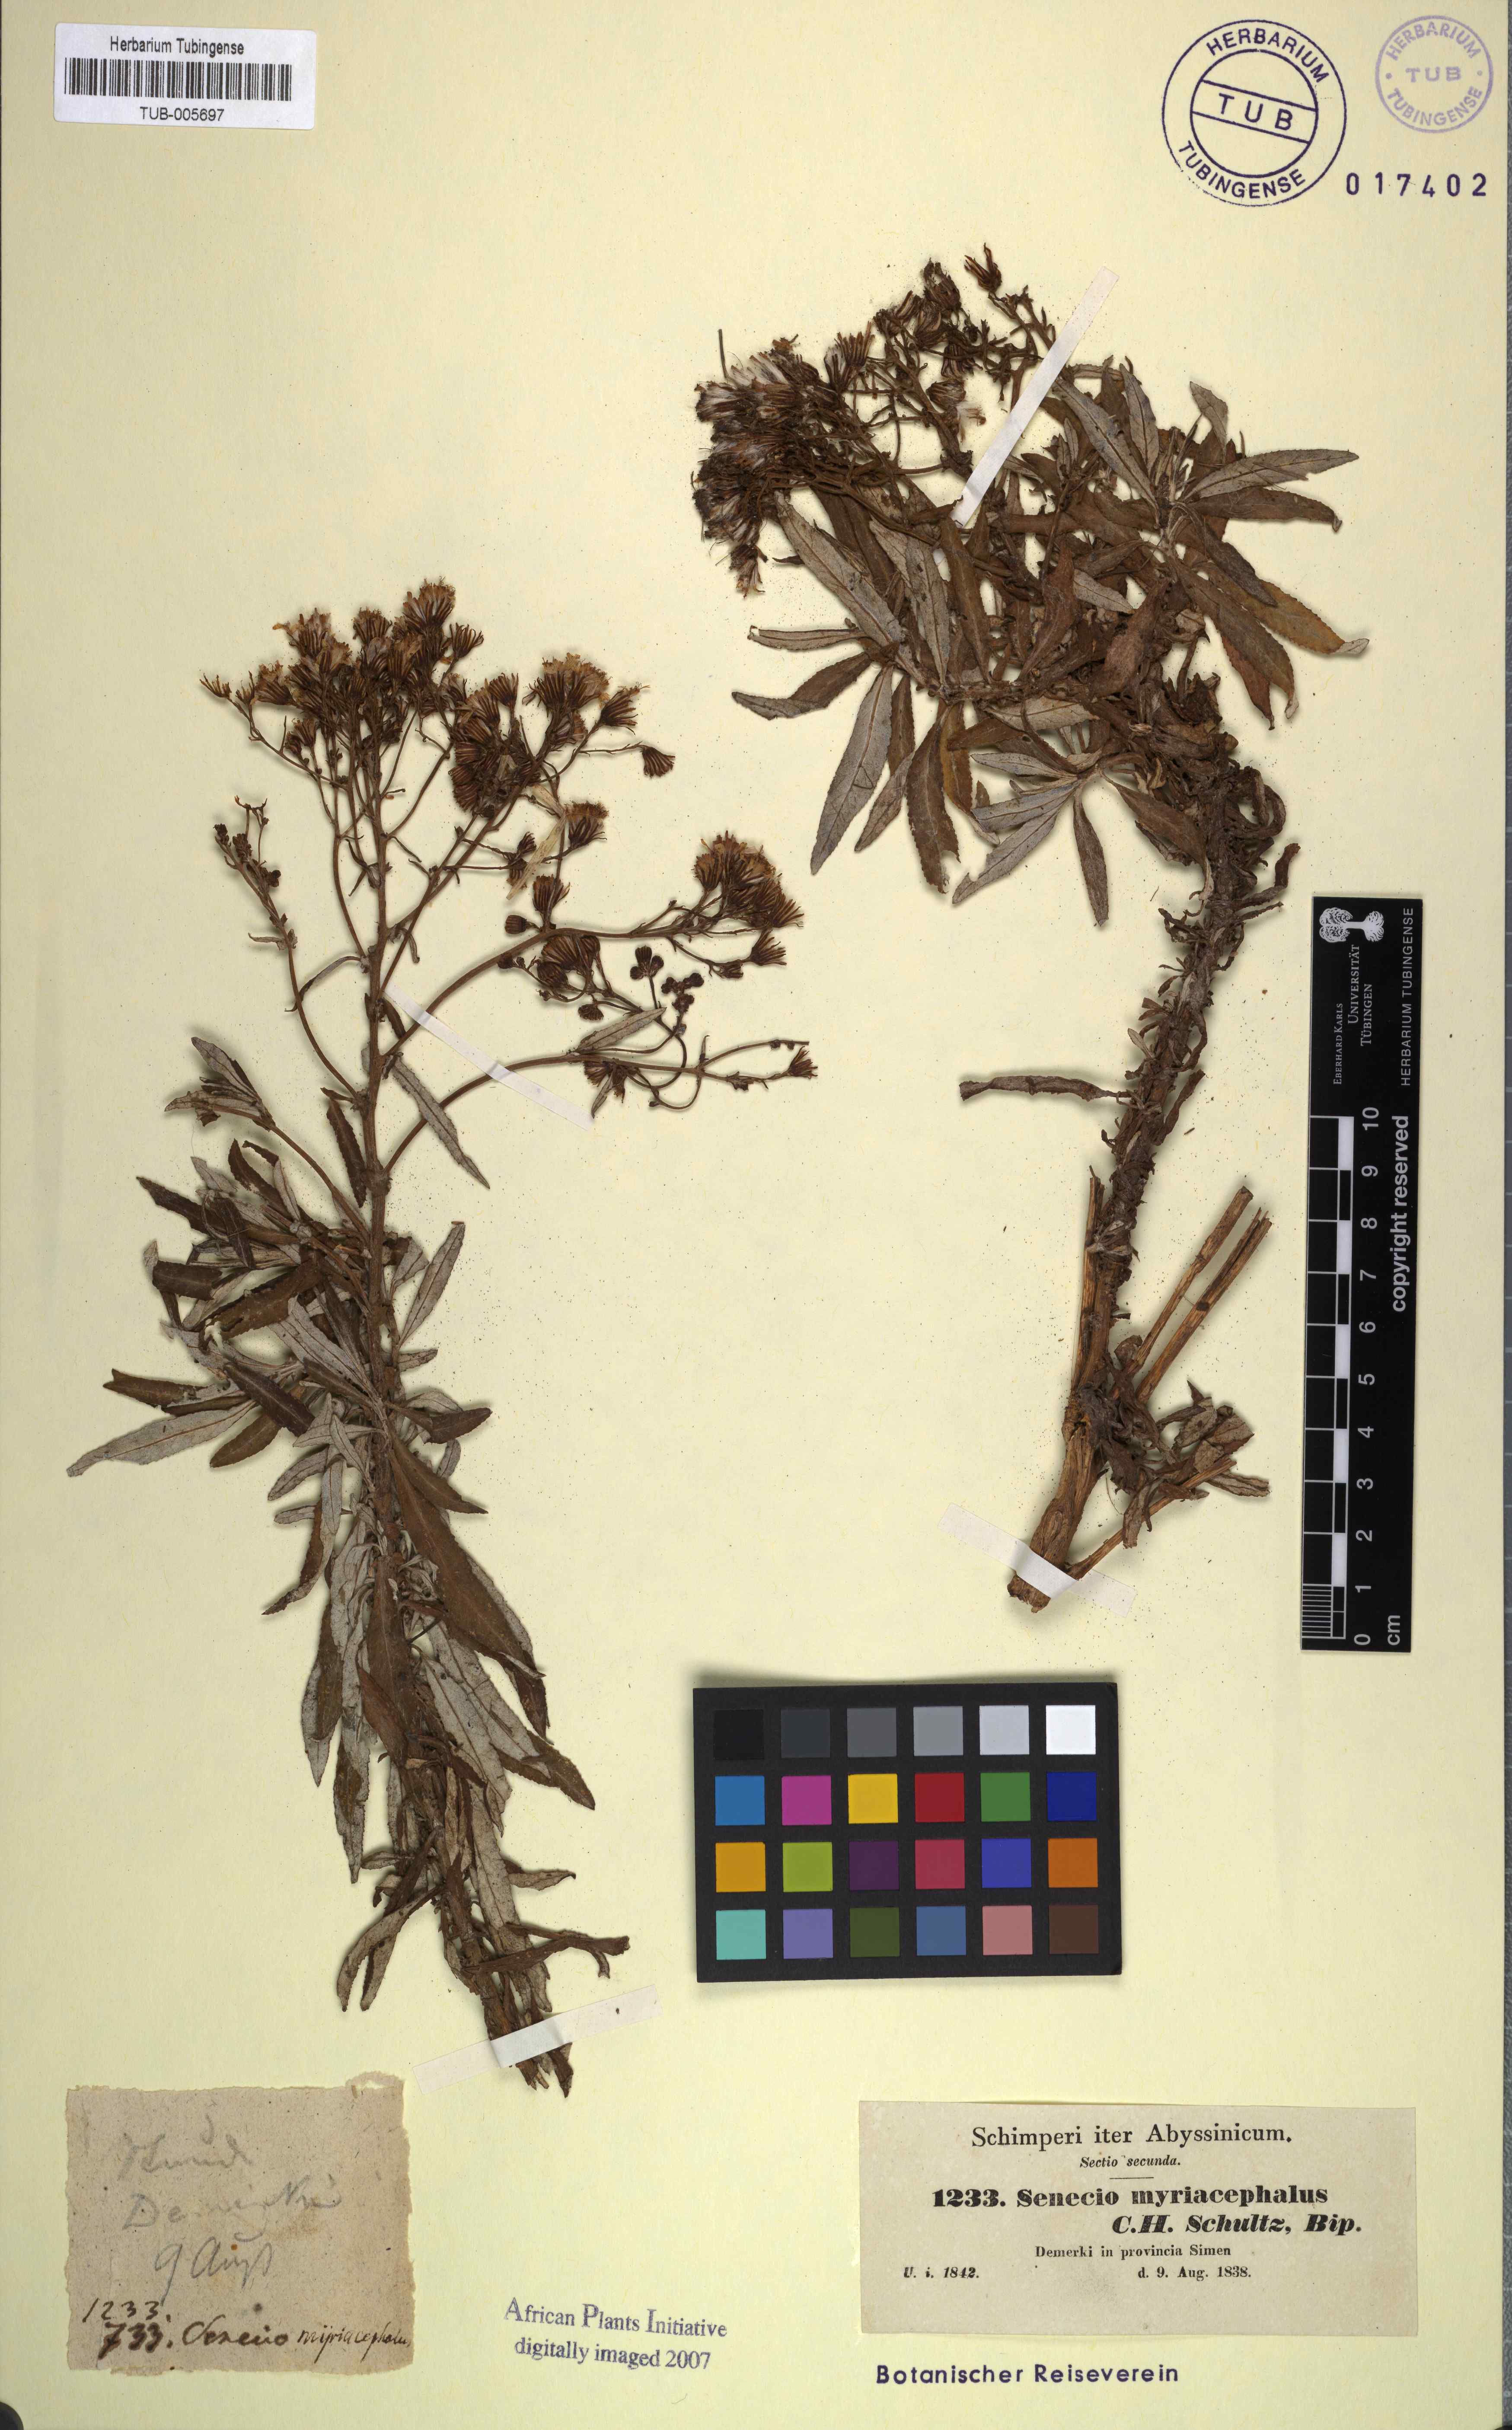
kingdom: Plantae
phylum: Tracheophyta
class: Magnoliopsida
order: Asterales
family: Asteraceae
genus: Senecio
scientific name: Senecio myriocephalus
